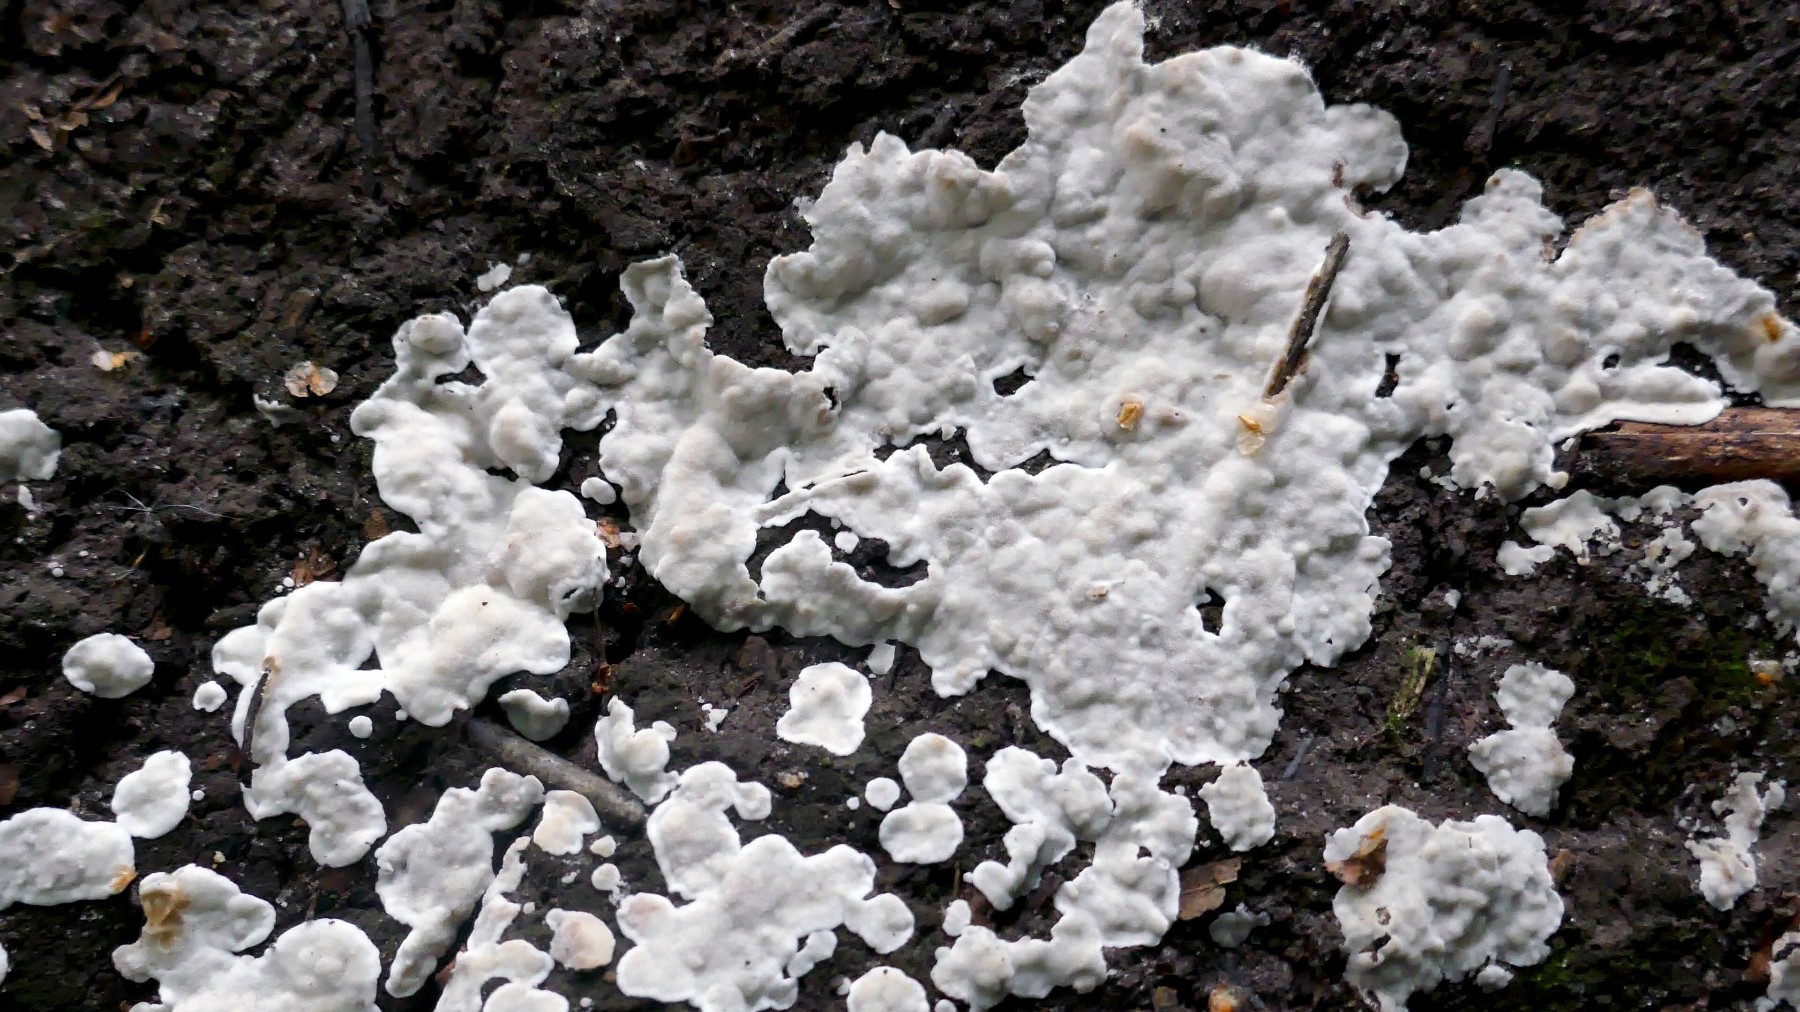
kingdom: Fungi
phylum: Basidiomycota
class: Agaricomycetes
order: Polyporales
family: Meruliaceae
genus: Physisporinus
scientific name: Physisporinus
